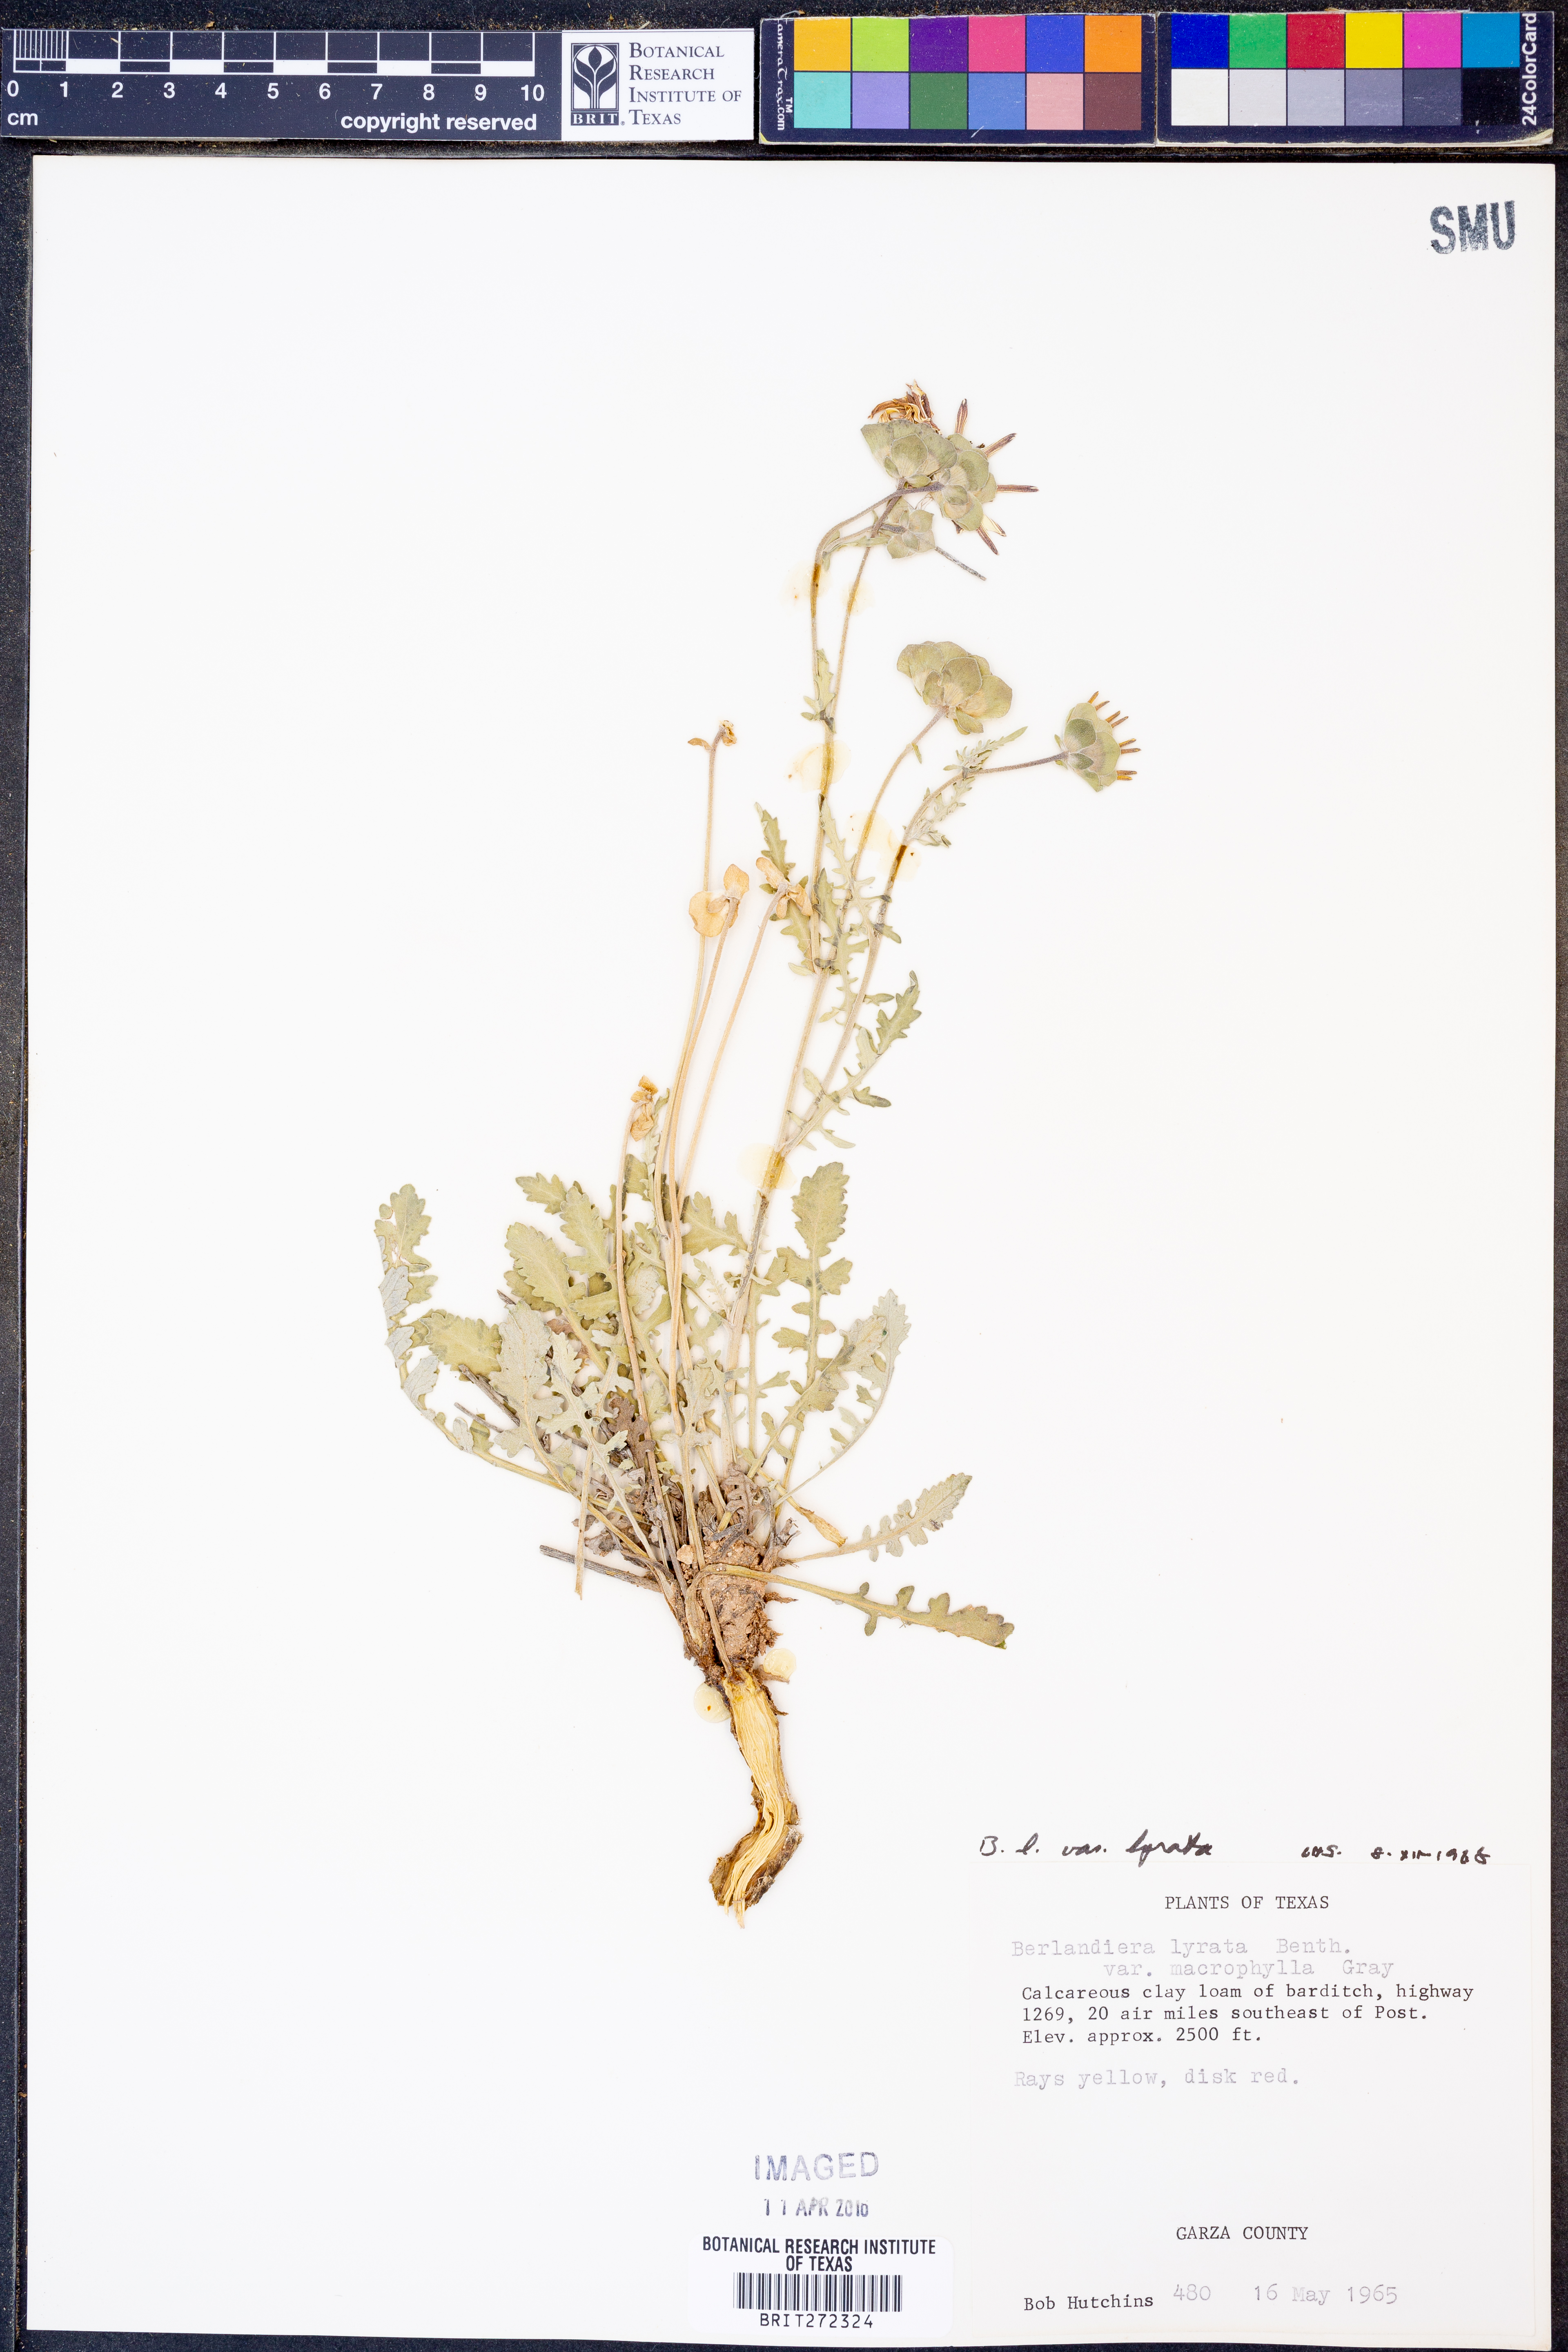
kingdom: Plantae
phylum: Tracheophyta
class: Magnoliopsida
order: Asterales
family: Asteraceae
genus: Berlandiera
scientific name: Berlandiera lyrata
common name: Chocolate-flower
